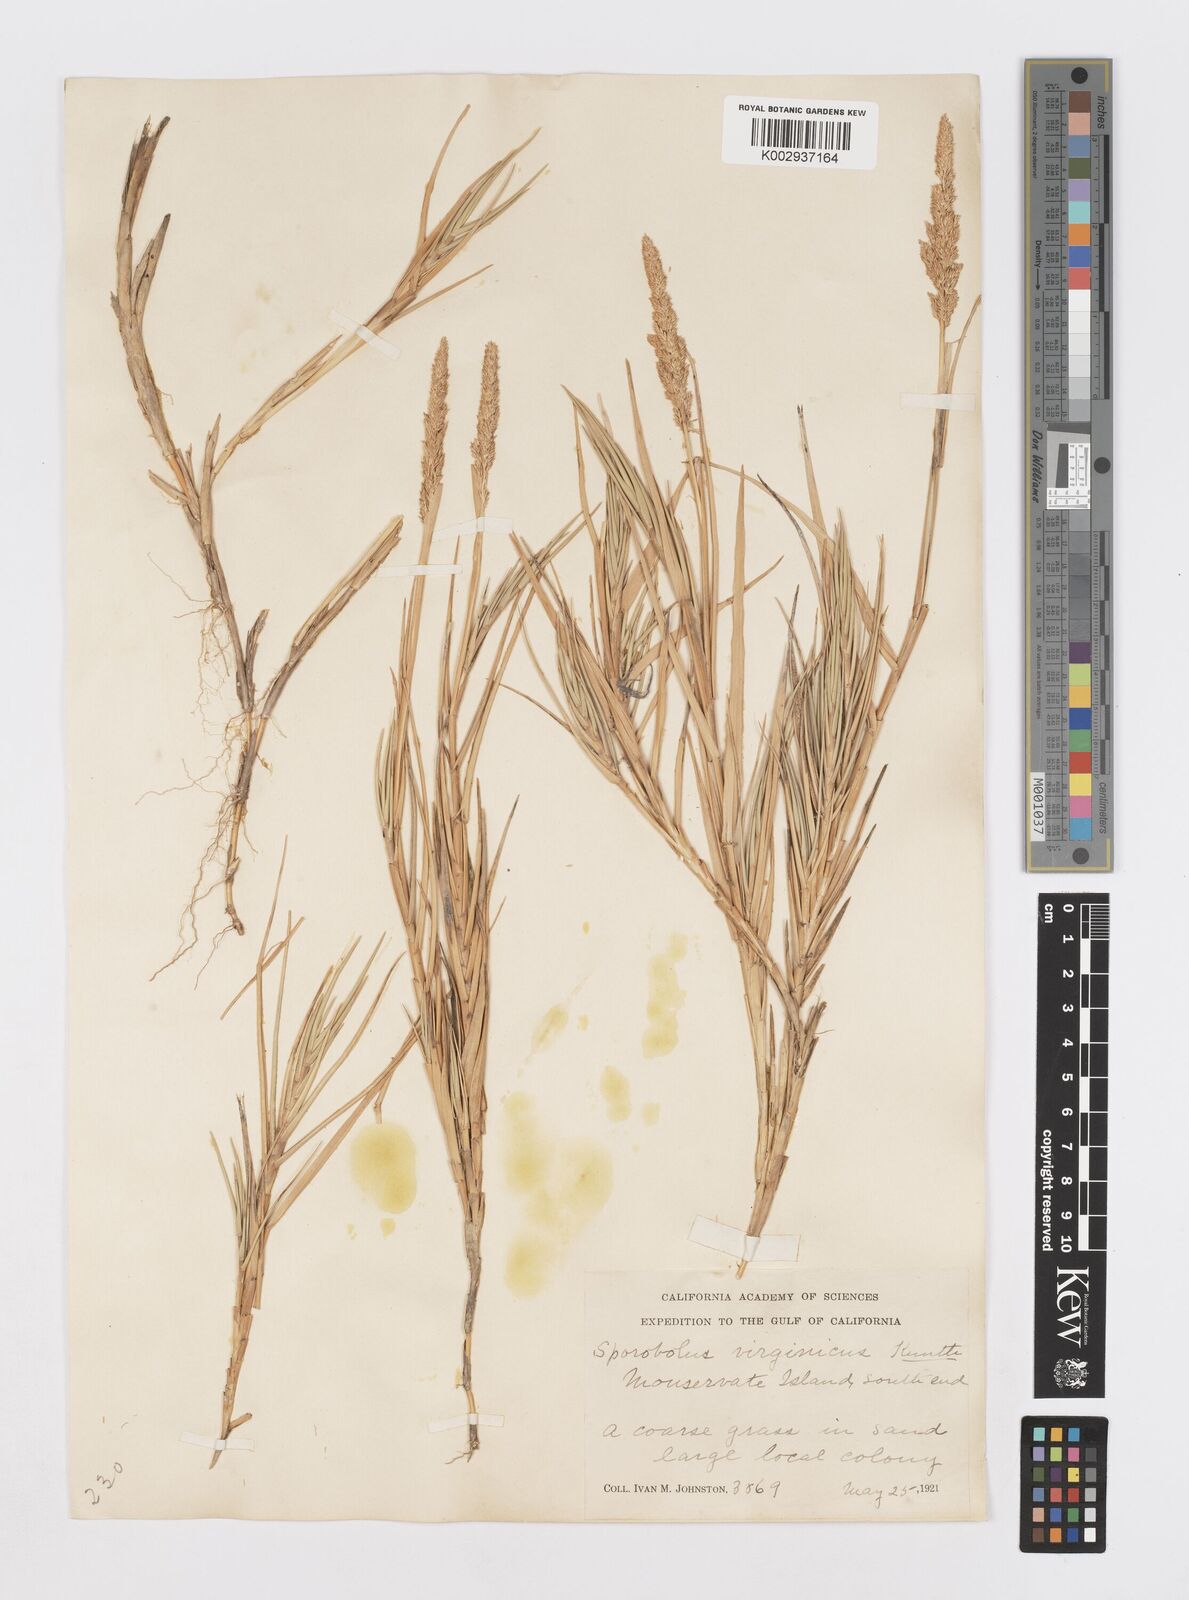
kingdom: Plantae
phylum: Tracheophyta
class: Liliopsida
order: Poales
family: Poaceae
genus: Sporobolus
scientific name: Sporobolus virginicus
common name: Beach dropseed
